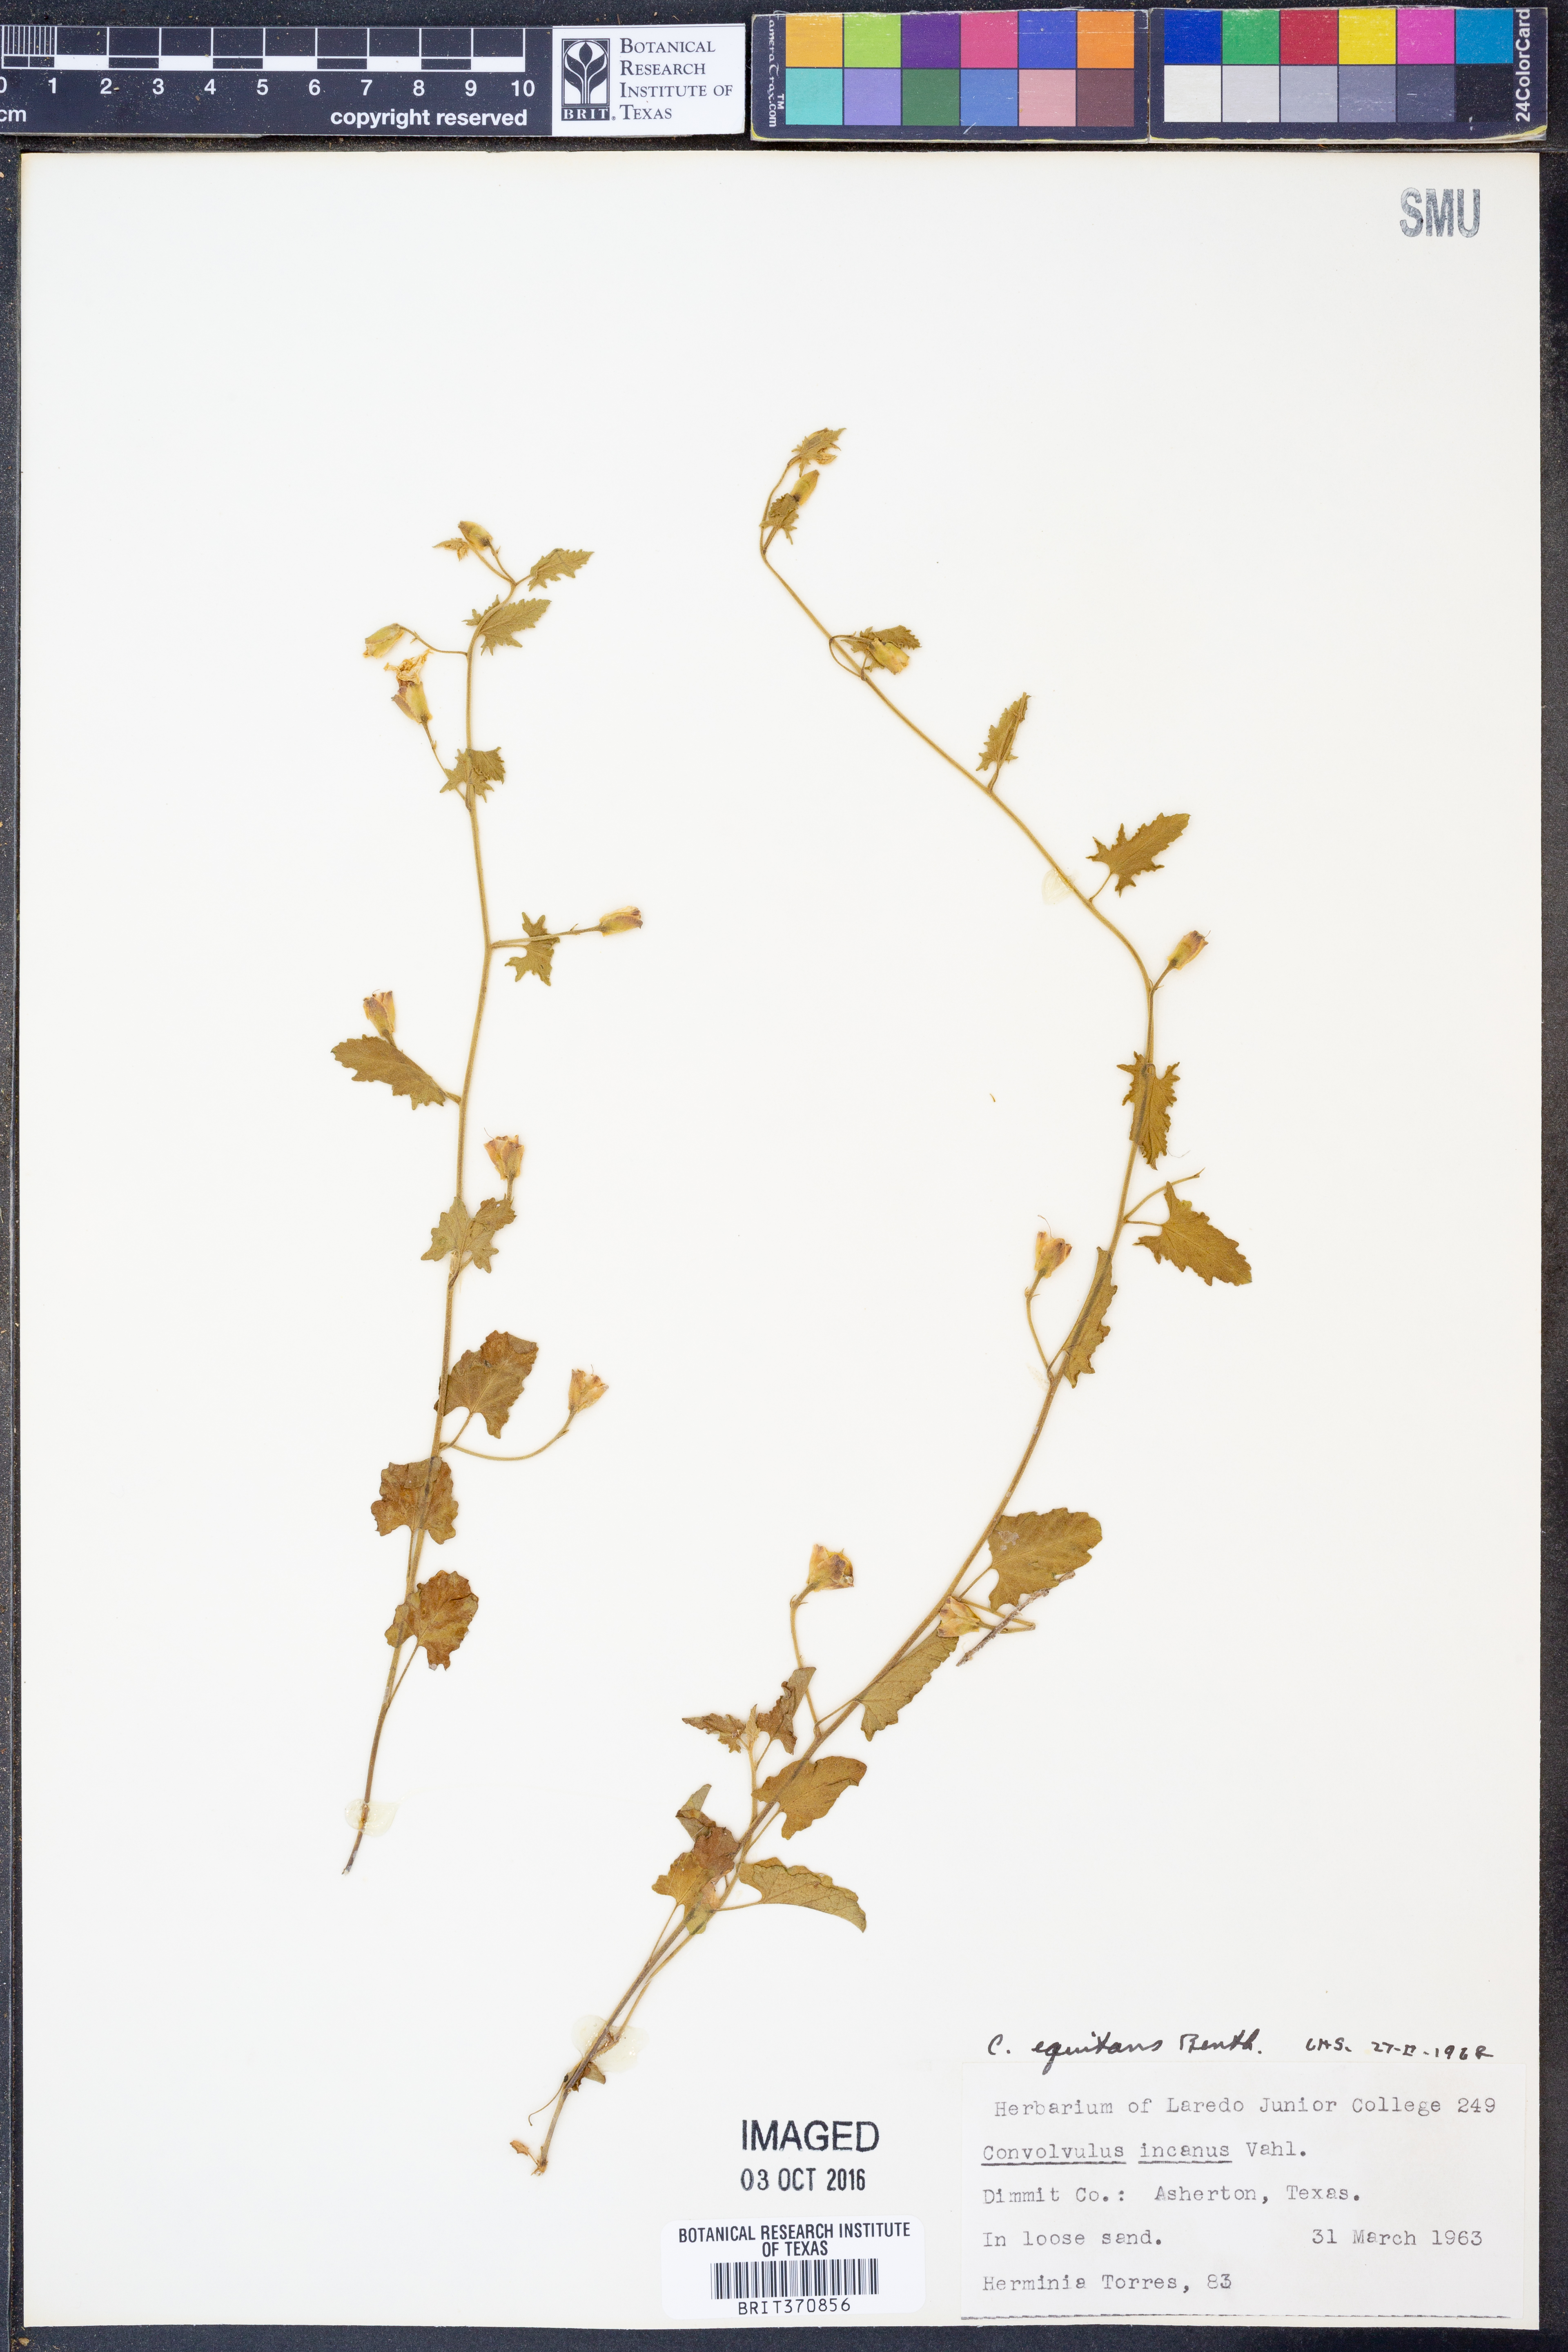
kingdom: Plantae
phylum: Tracheophyta
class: Magnoliopsida
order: Solanales
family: Convolvulaceae
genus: Convolvulus
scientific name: Convolvulus equitans
